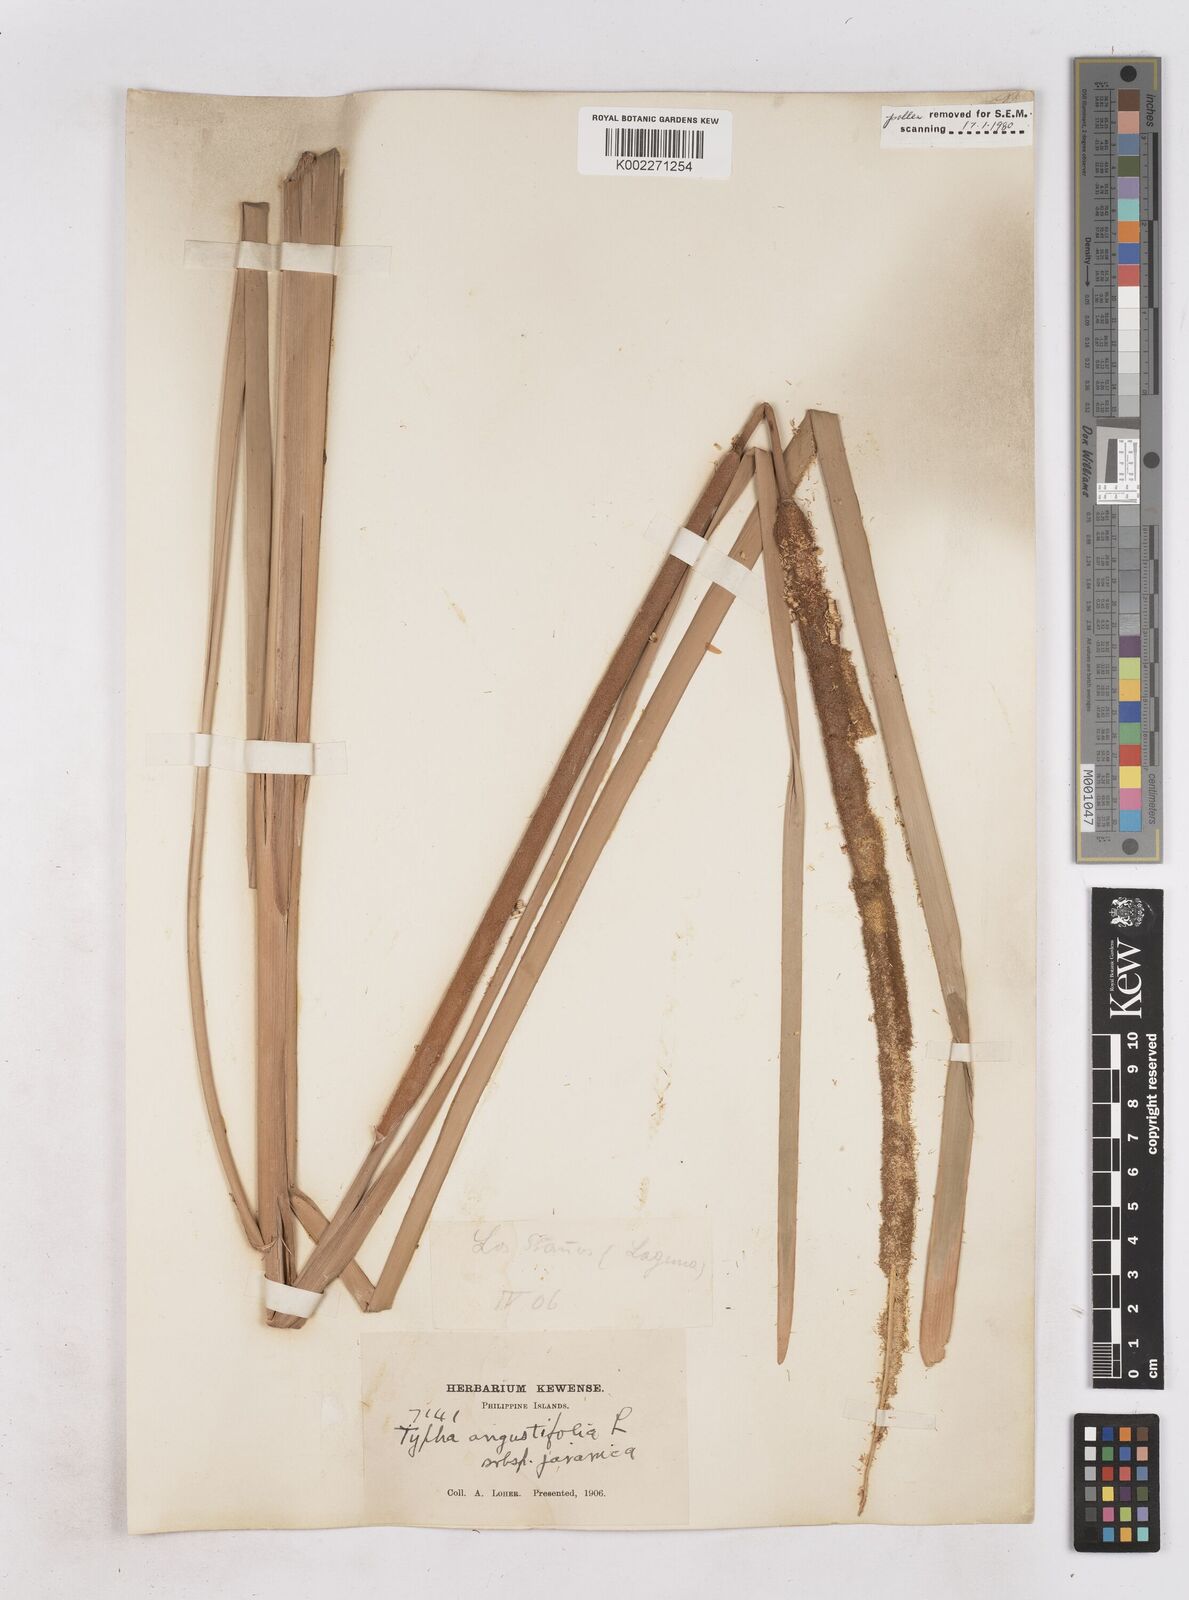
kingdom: Plantae
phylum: Tracheophyta
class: Liliopsida
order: Poales
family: Typhaceae
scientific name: Typhaceae
